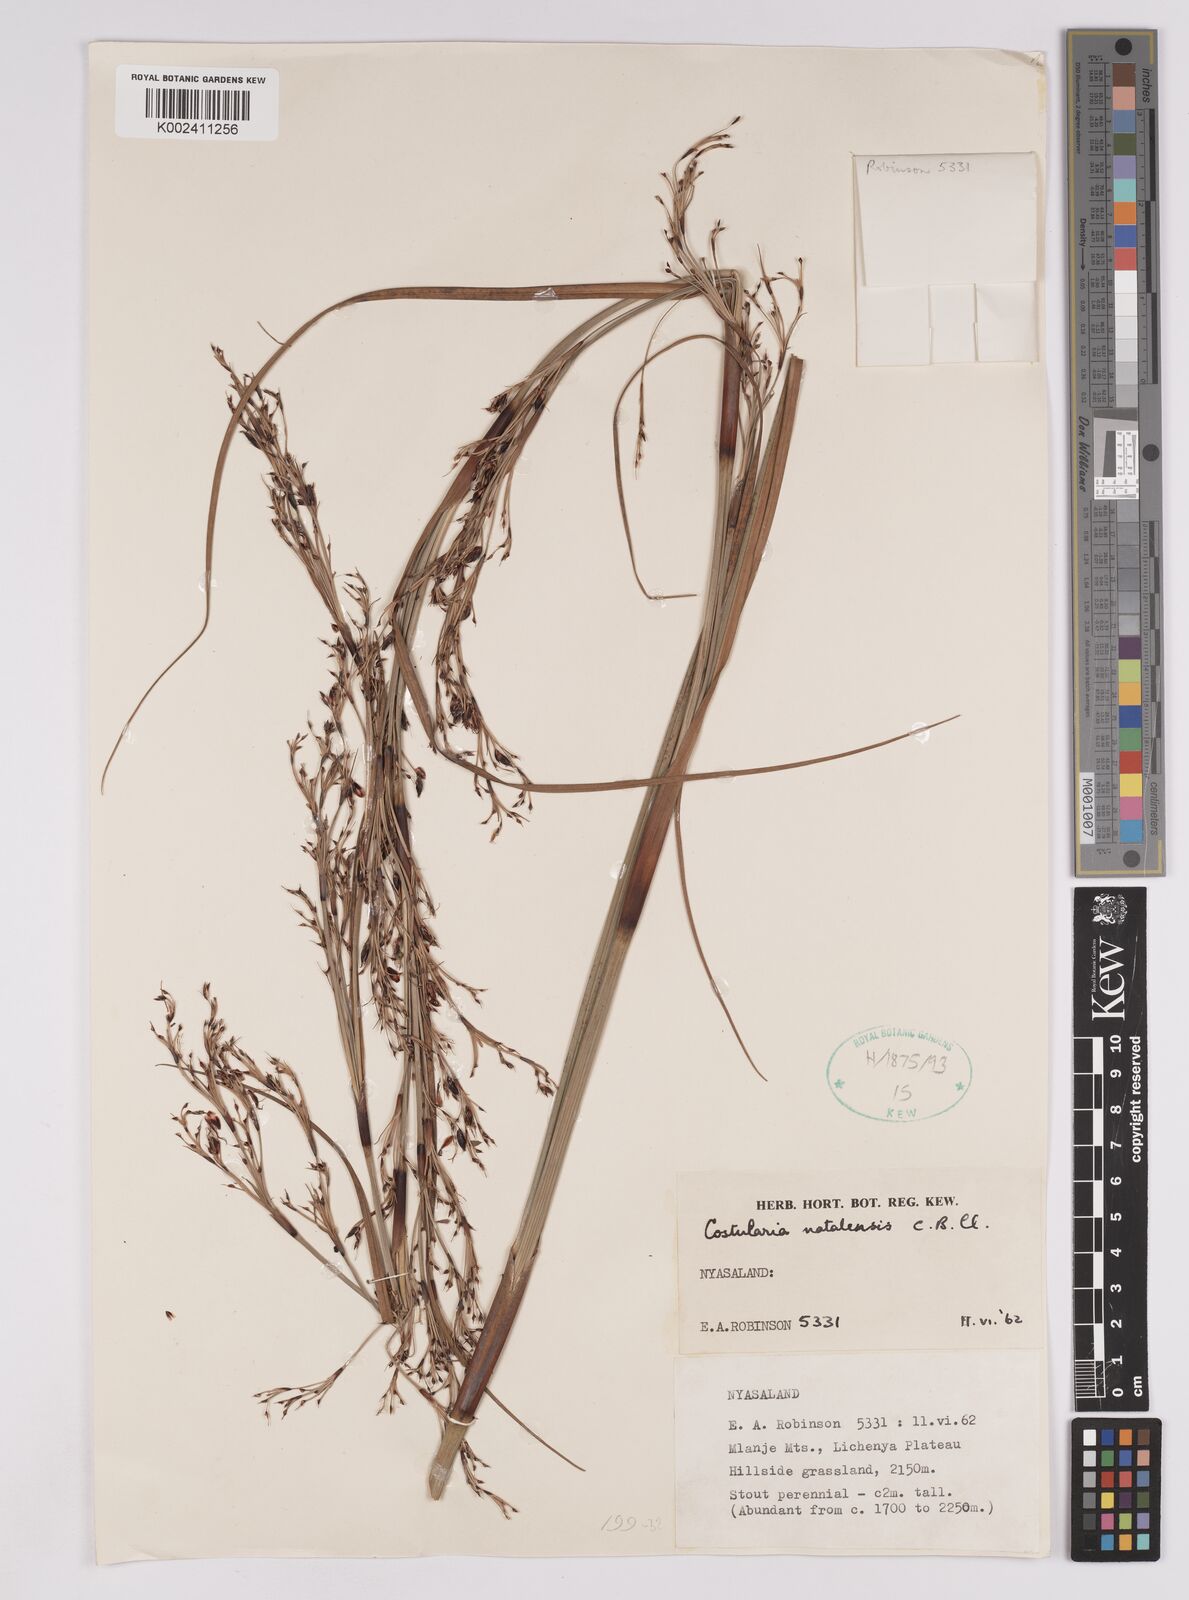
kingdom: Plantae
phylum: Tracheophyta
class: Liliopsida
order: Poales
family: Cyperaceae
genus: Costularia
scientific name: Costularia natalensis
